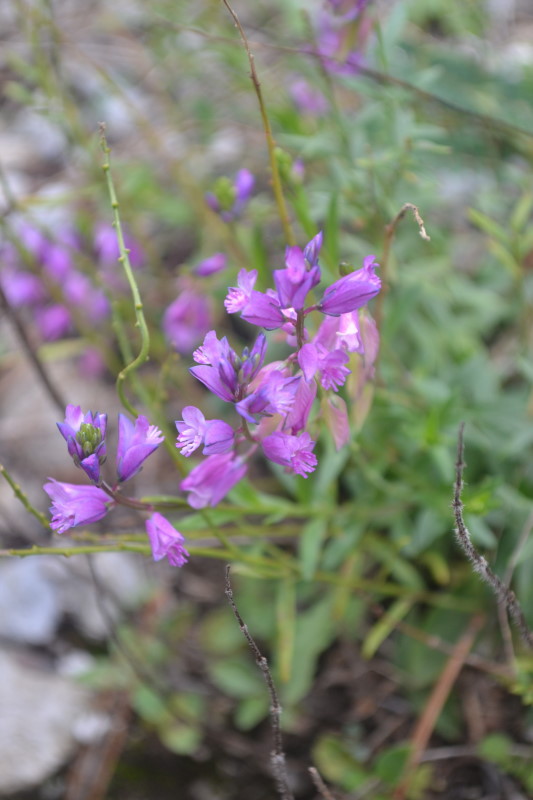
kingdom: Plantae
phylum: Tracheophyta
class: Magnoliopsida
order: Fabales
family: Polygalaceae
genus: Polygala
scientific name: Polygala nicaeensis
